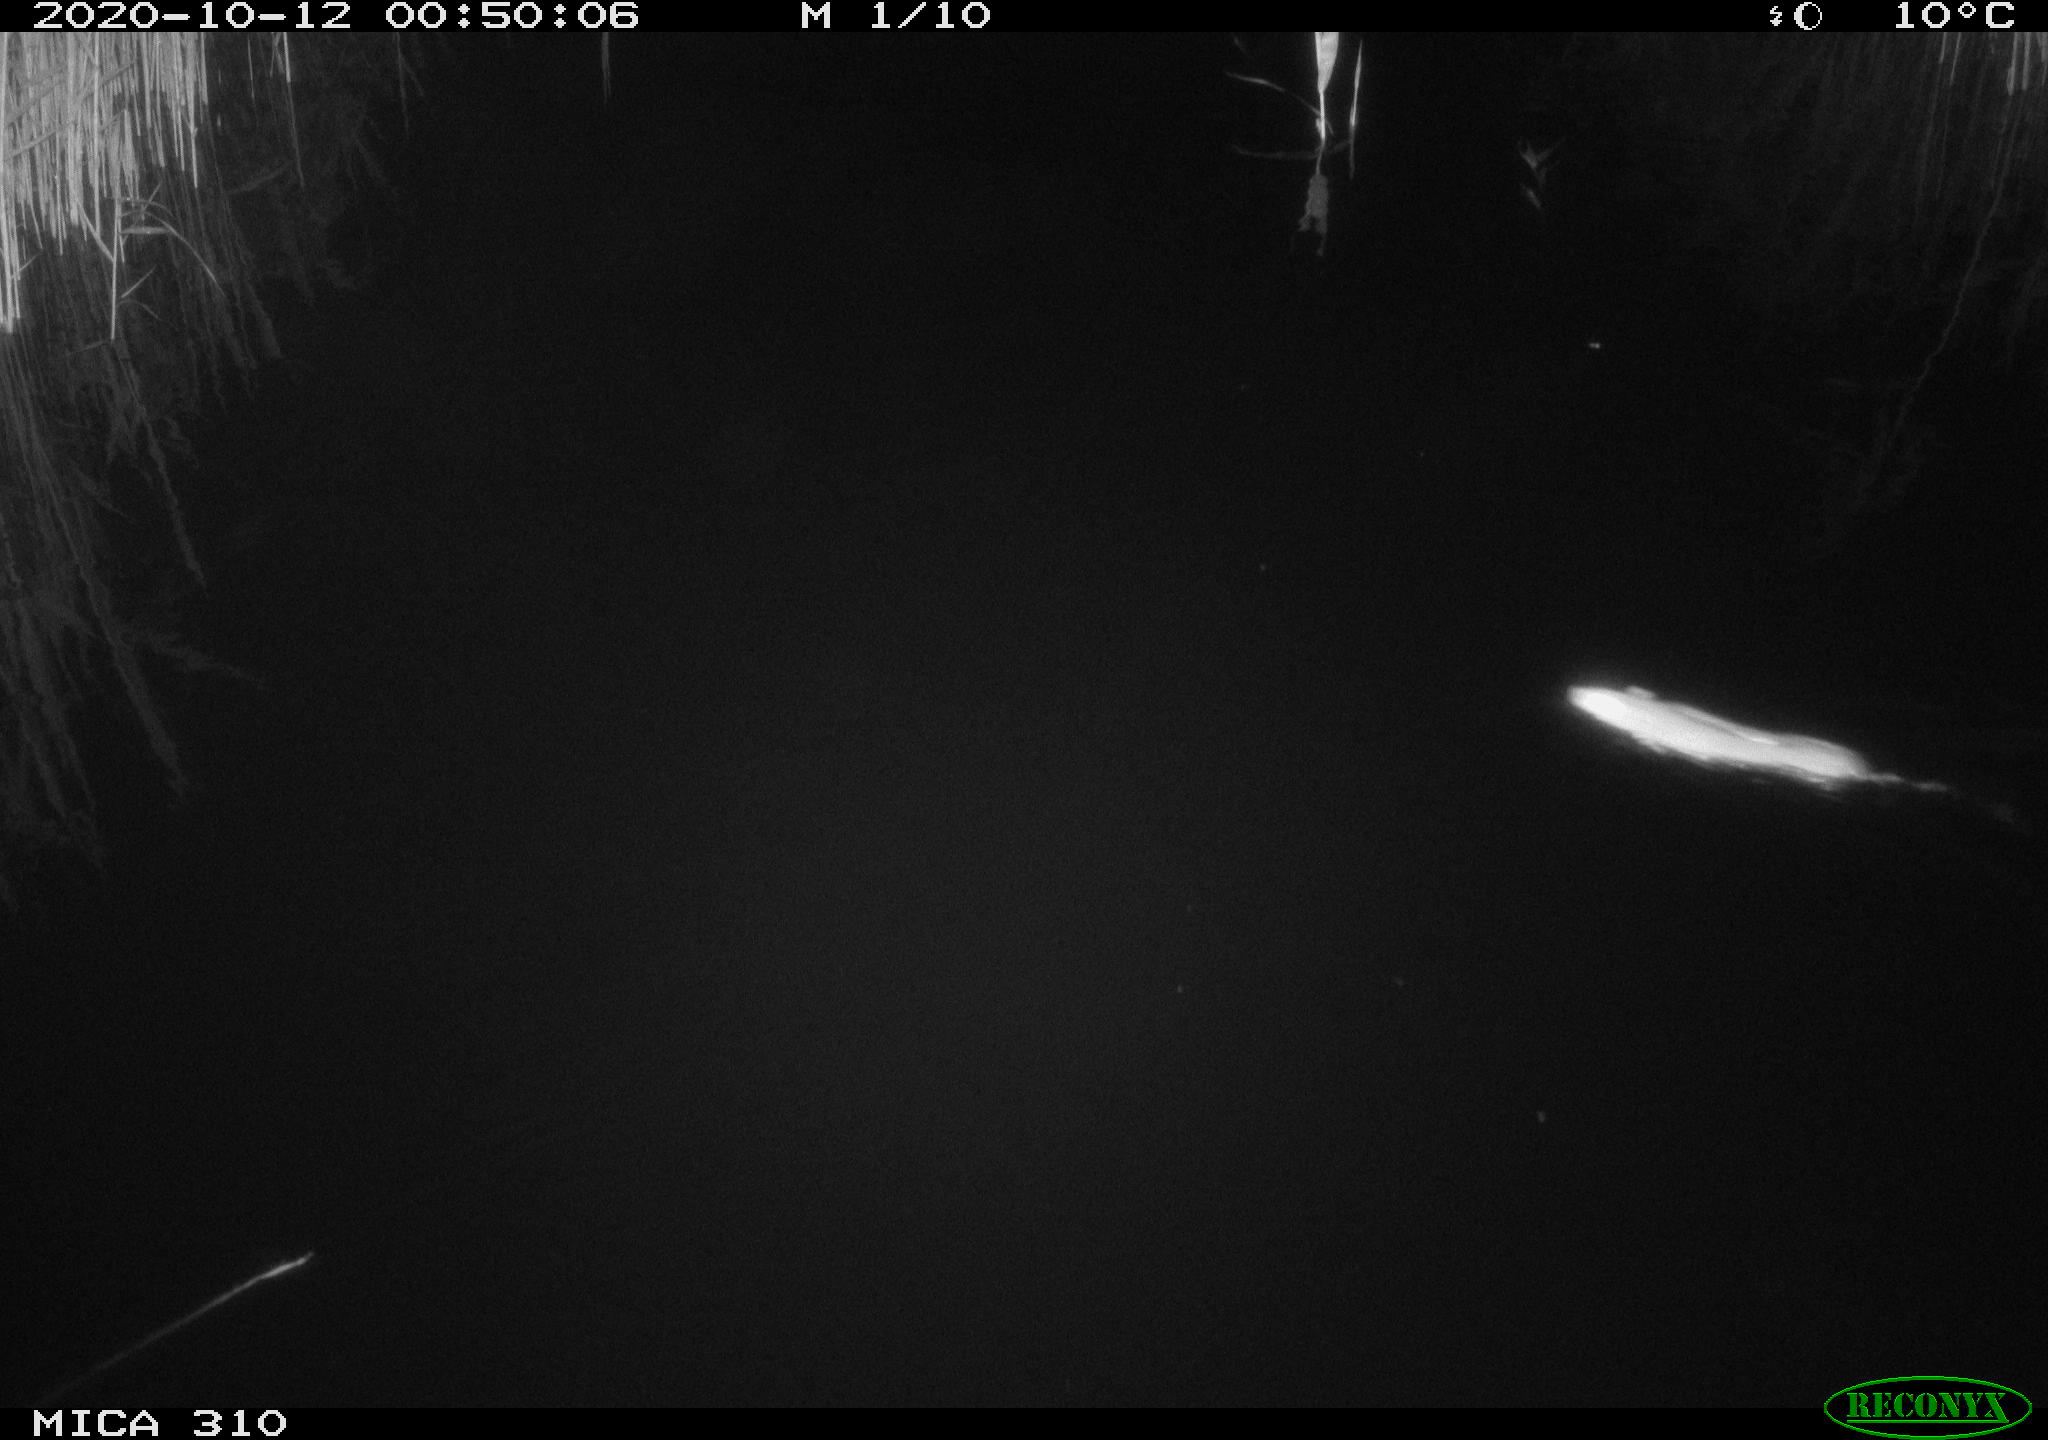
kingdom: Animalia
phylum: Chordata
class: Mammalia
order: Rodentia
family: Muridae
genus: Rattus
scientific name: Rattus norvegicus
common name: Brown rat
